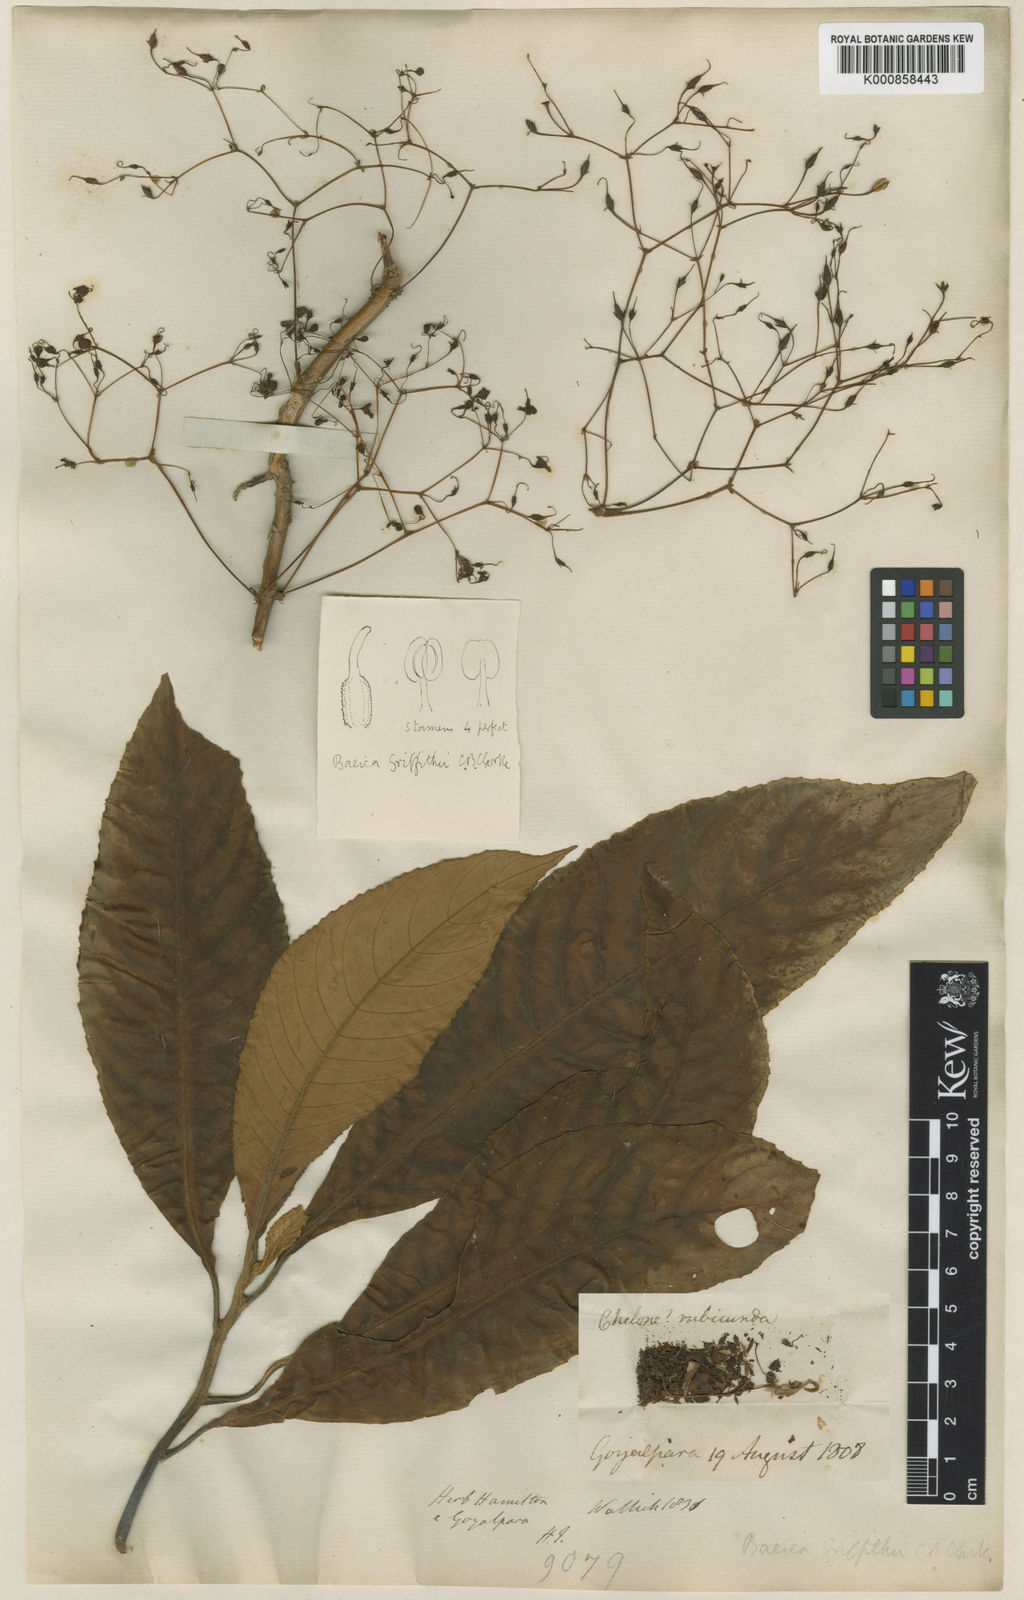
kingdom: Plantae
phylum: Tracheophyta
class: Magnoliopsida
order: Lamiales
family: Gesneriaceae
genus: Boeica
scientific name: Boeica griffithii
